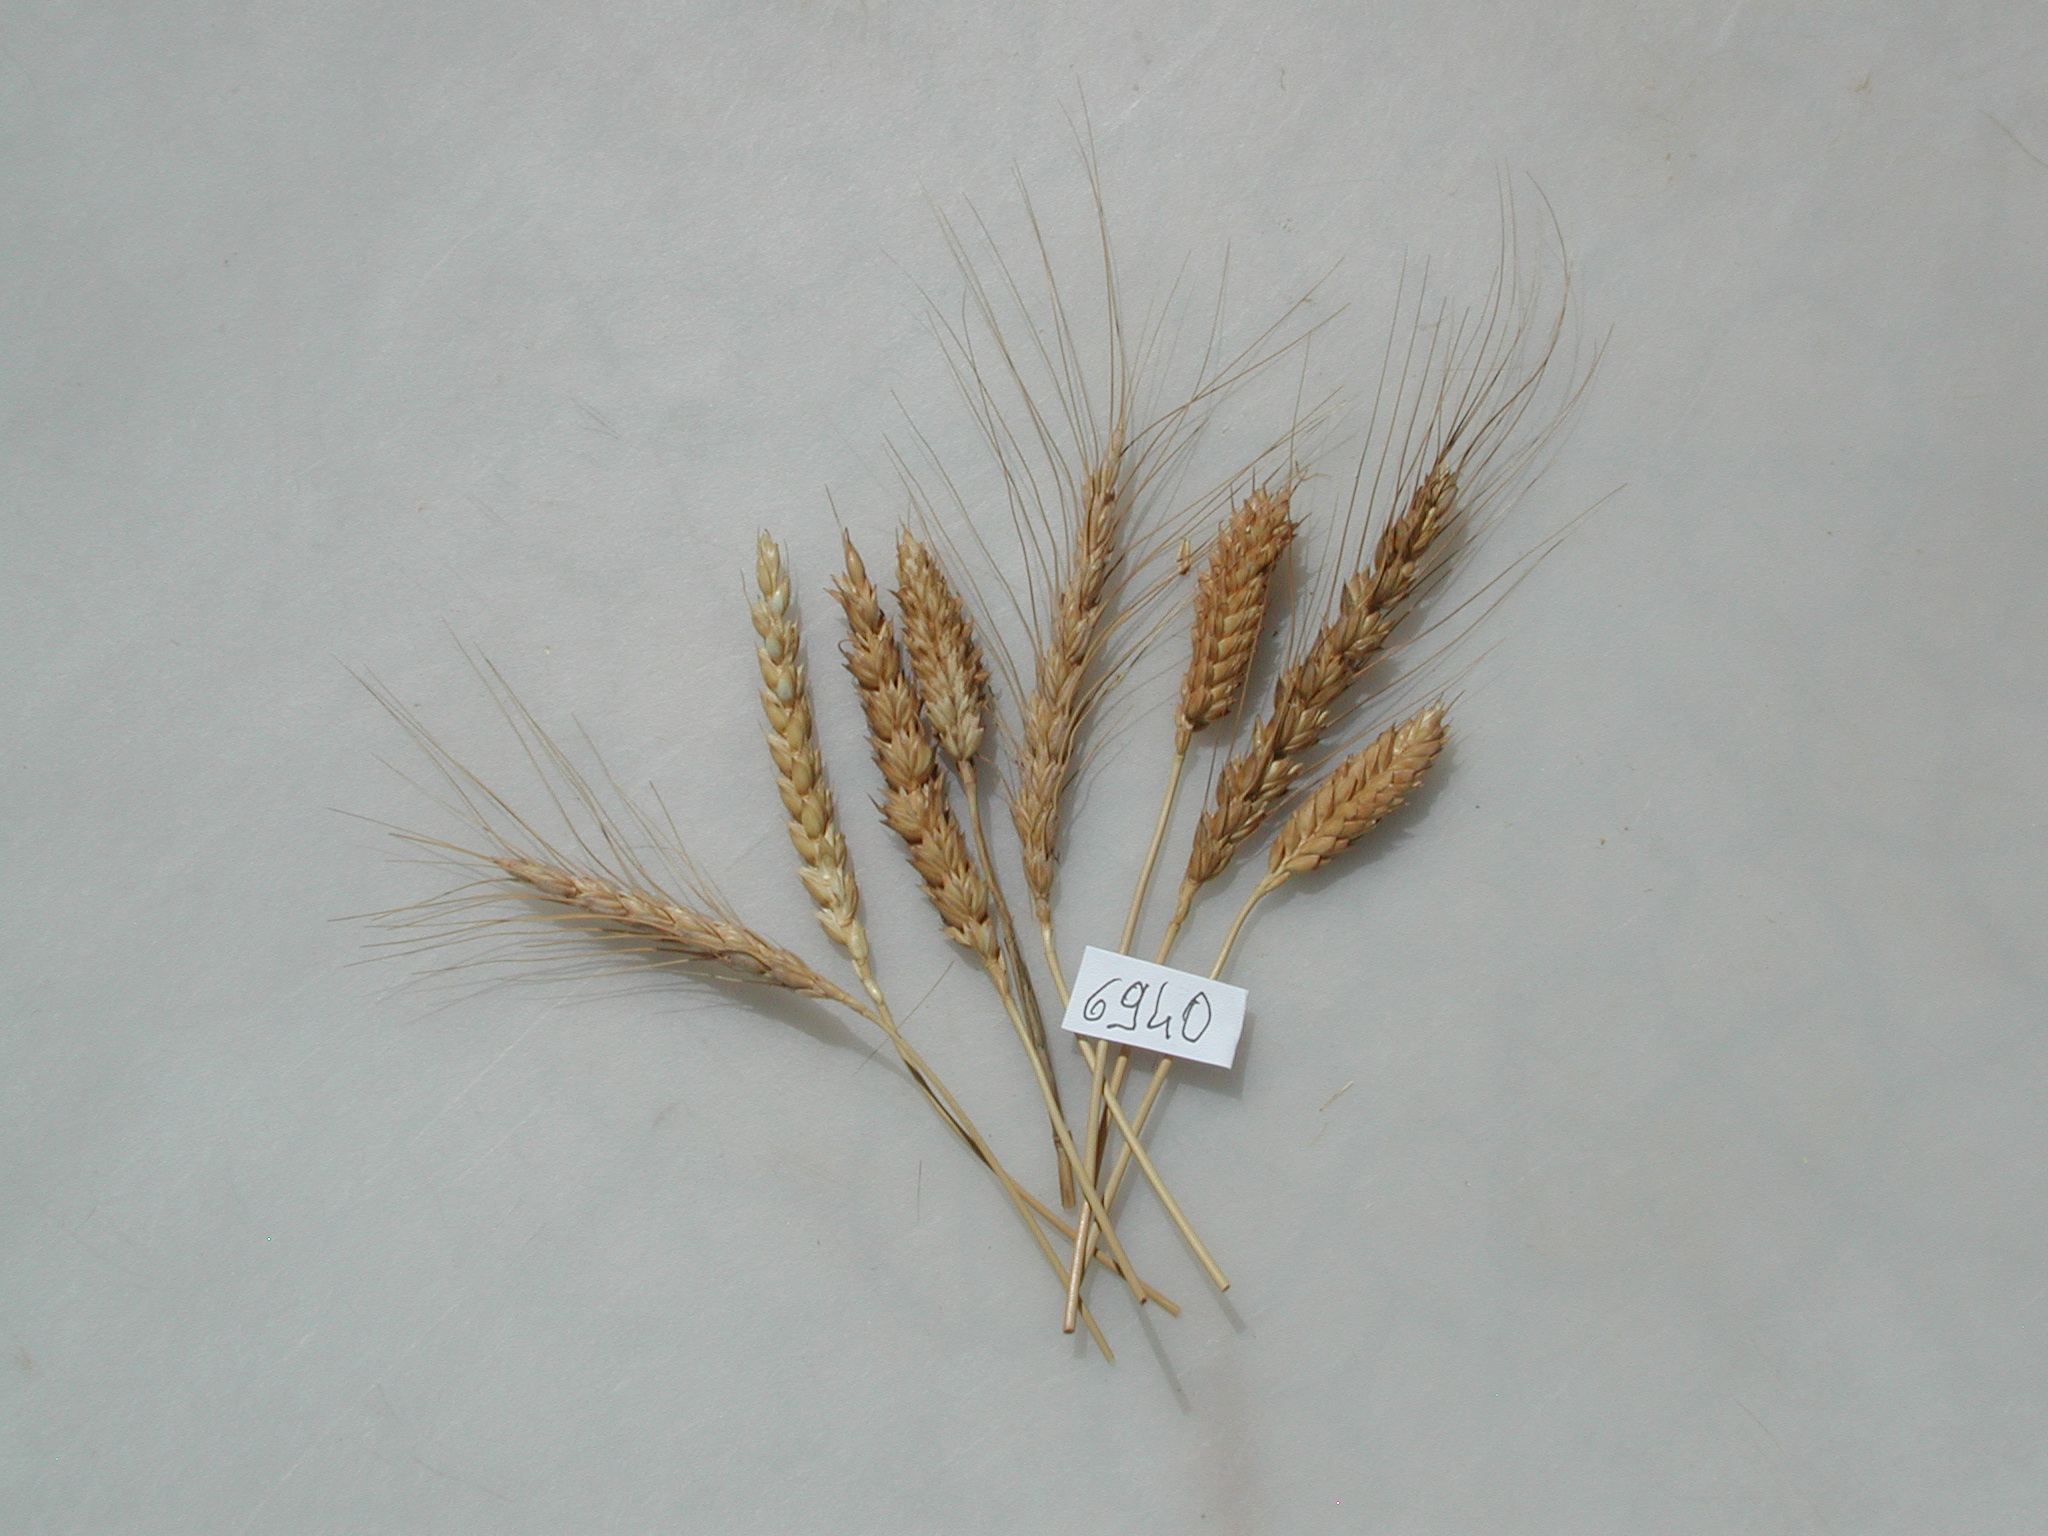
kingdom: Plantae
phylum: Tracheophyta
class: Liliopsida
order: Poales
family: Poaceae
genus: Triticum
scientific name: Triticum aestivum
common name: Wheat
